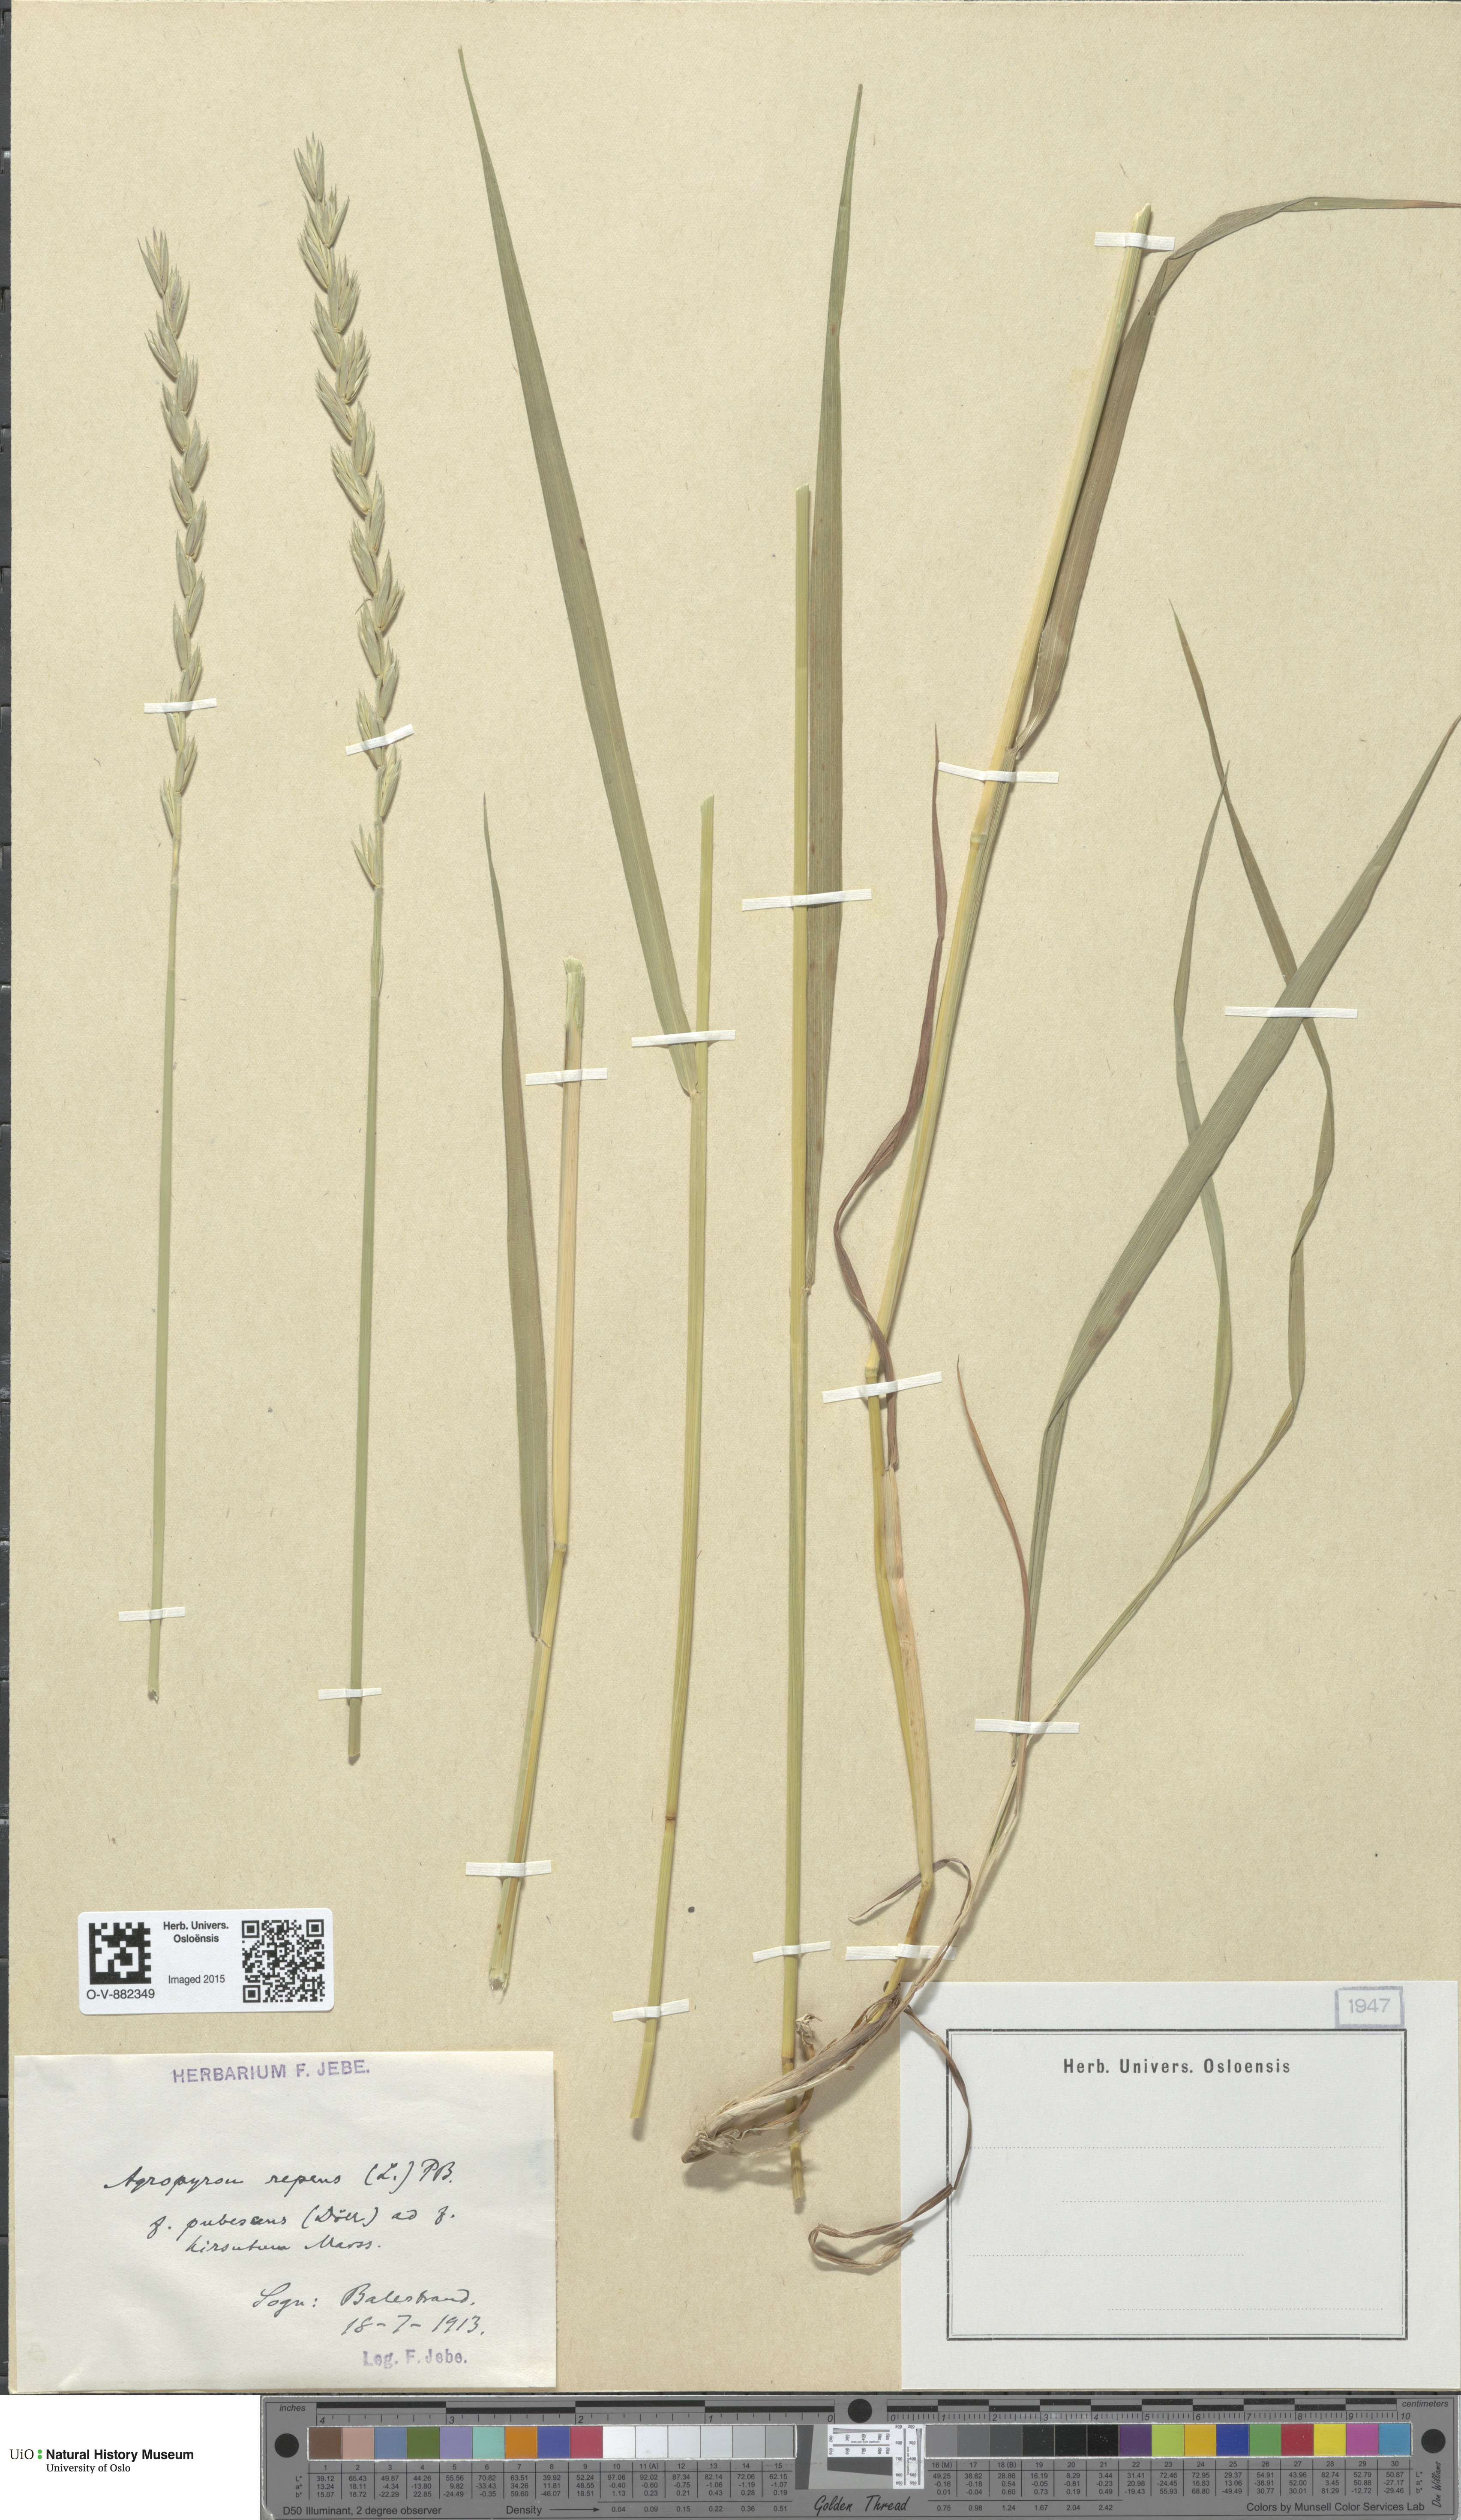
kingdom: Plantae
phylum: Tracheophyta
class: Liliopsida
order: Poales
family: Poaceae
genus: Elymus
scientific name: Elymus repens
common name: Quackgrass
